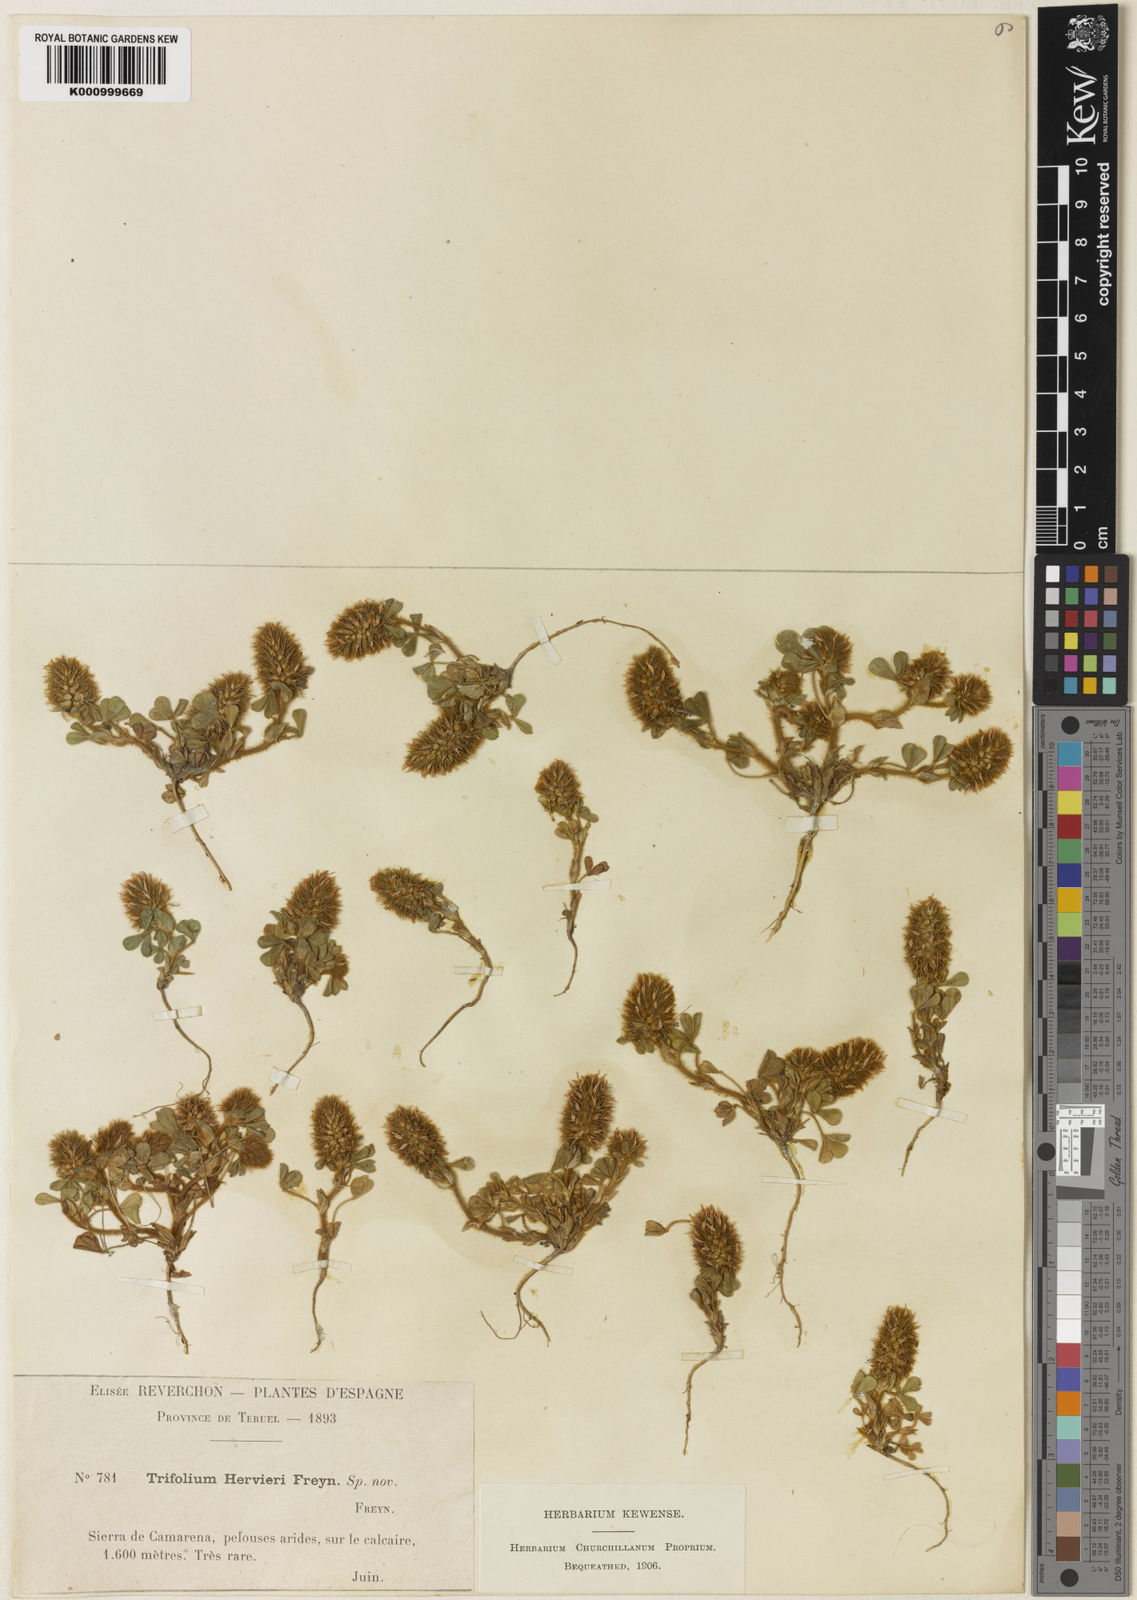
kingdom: Plantae
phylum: Tracheophyta
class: Magnoliopsida
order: Fabales
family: Fabaceae
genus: Trifolium
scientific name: Trifolium
